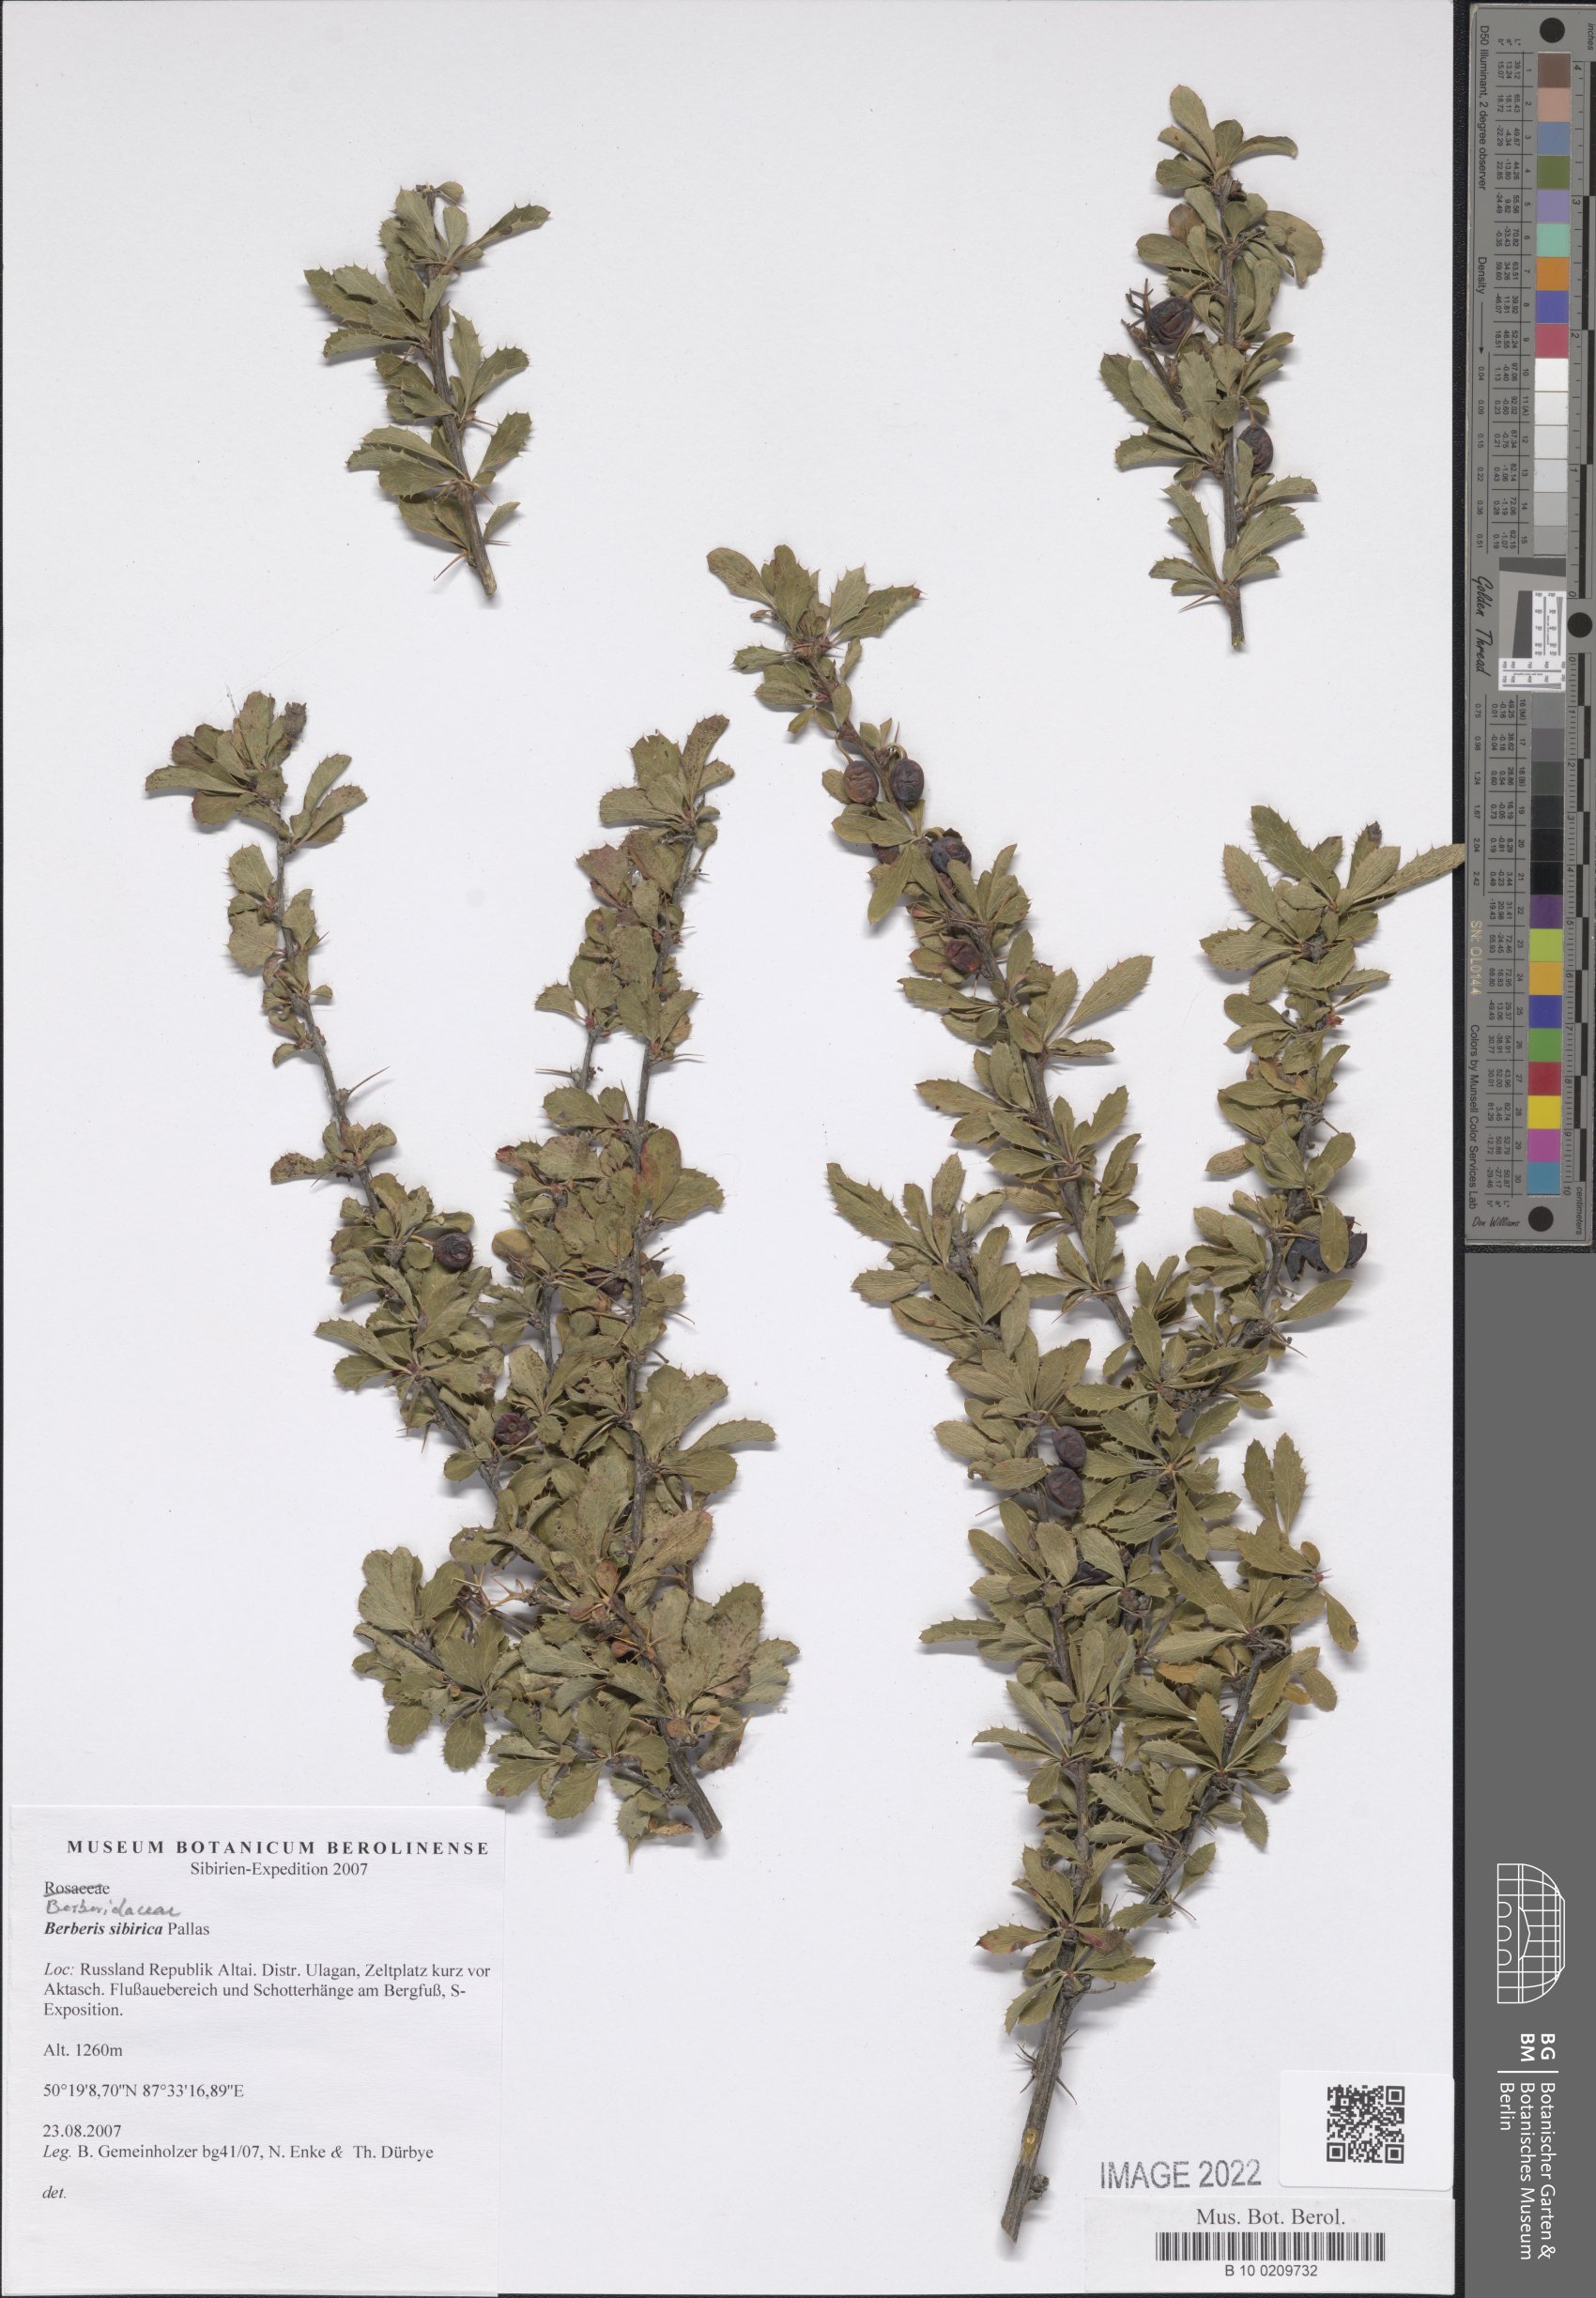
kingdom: Plantae
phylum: Tracheophyta
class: Magnoliopsida
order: Ranunculales
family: Berberidaceae
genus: Berberis
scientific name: Berberis sibirica
